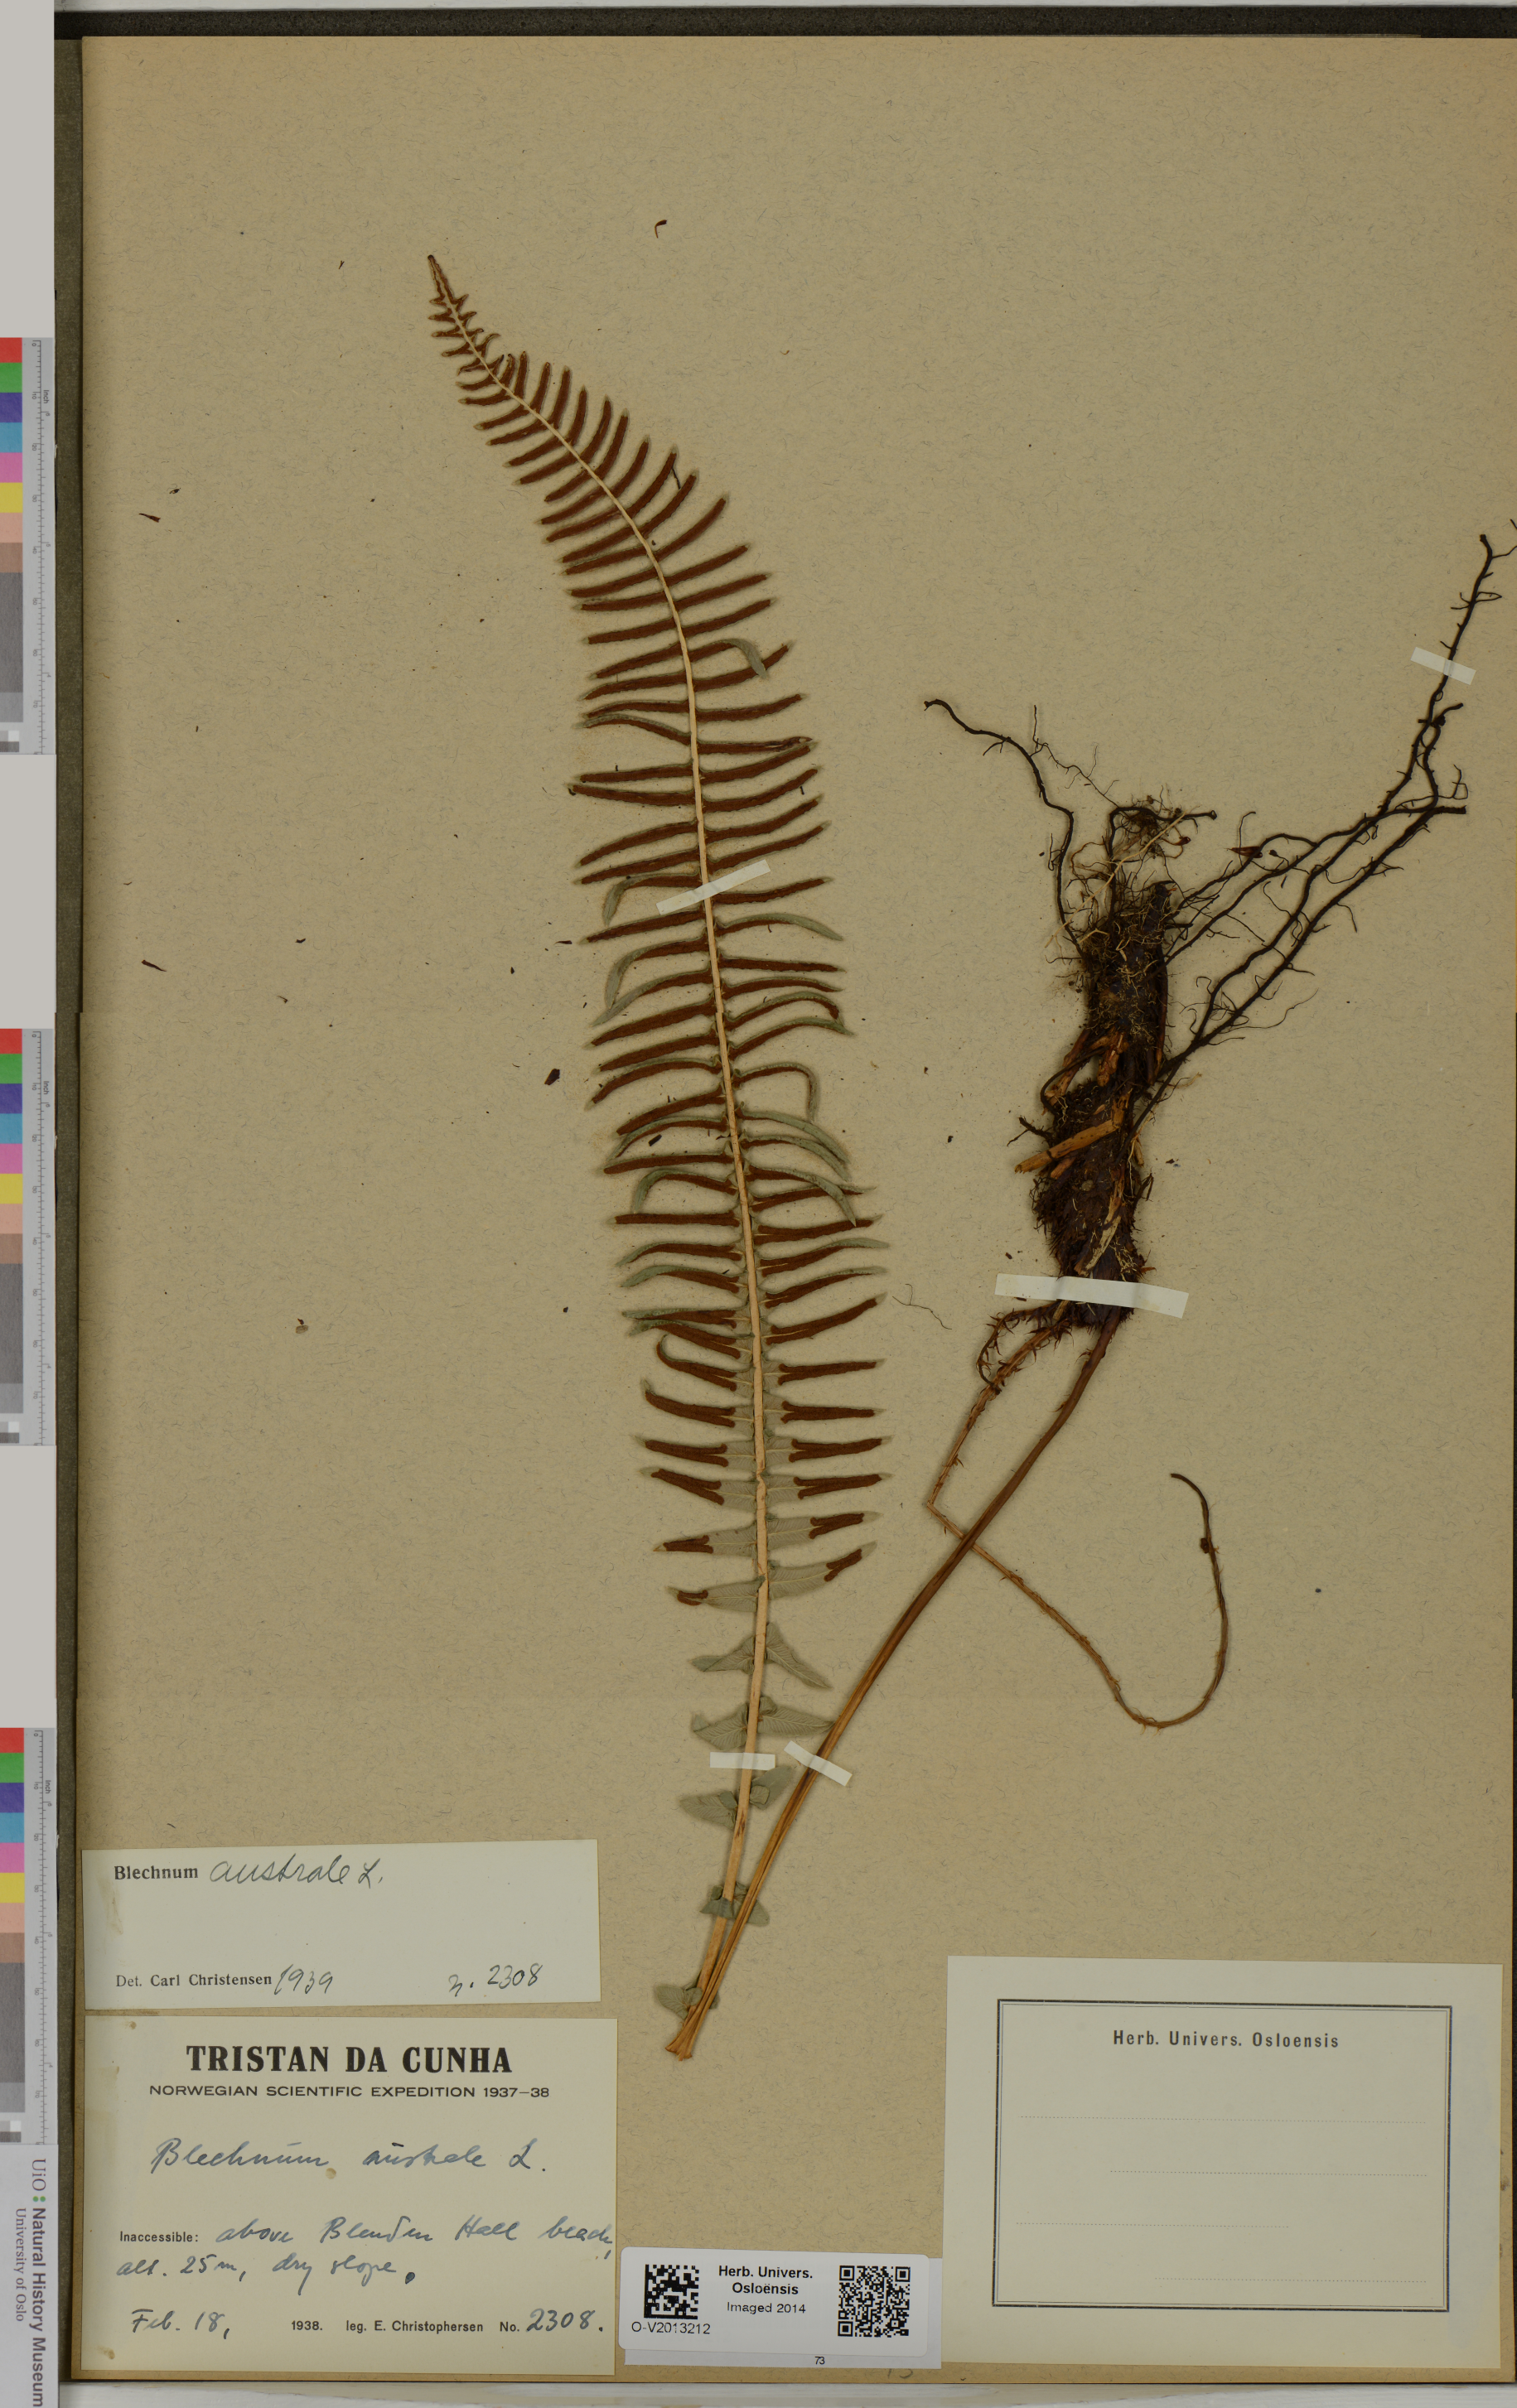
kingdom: Plantae
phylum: Tracheophyta
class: Polypodiopsida
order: Polypodiales
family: Blechnaceae
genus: Blechnum
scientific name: Blechnum australe
